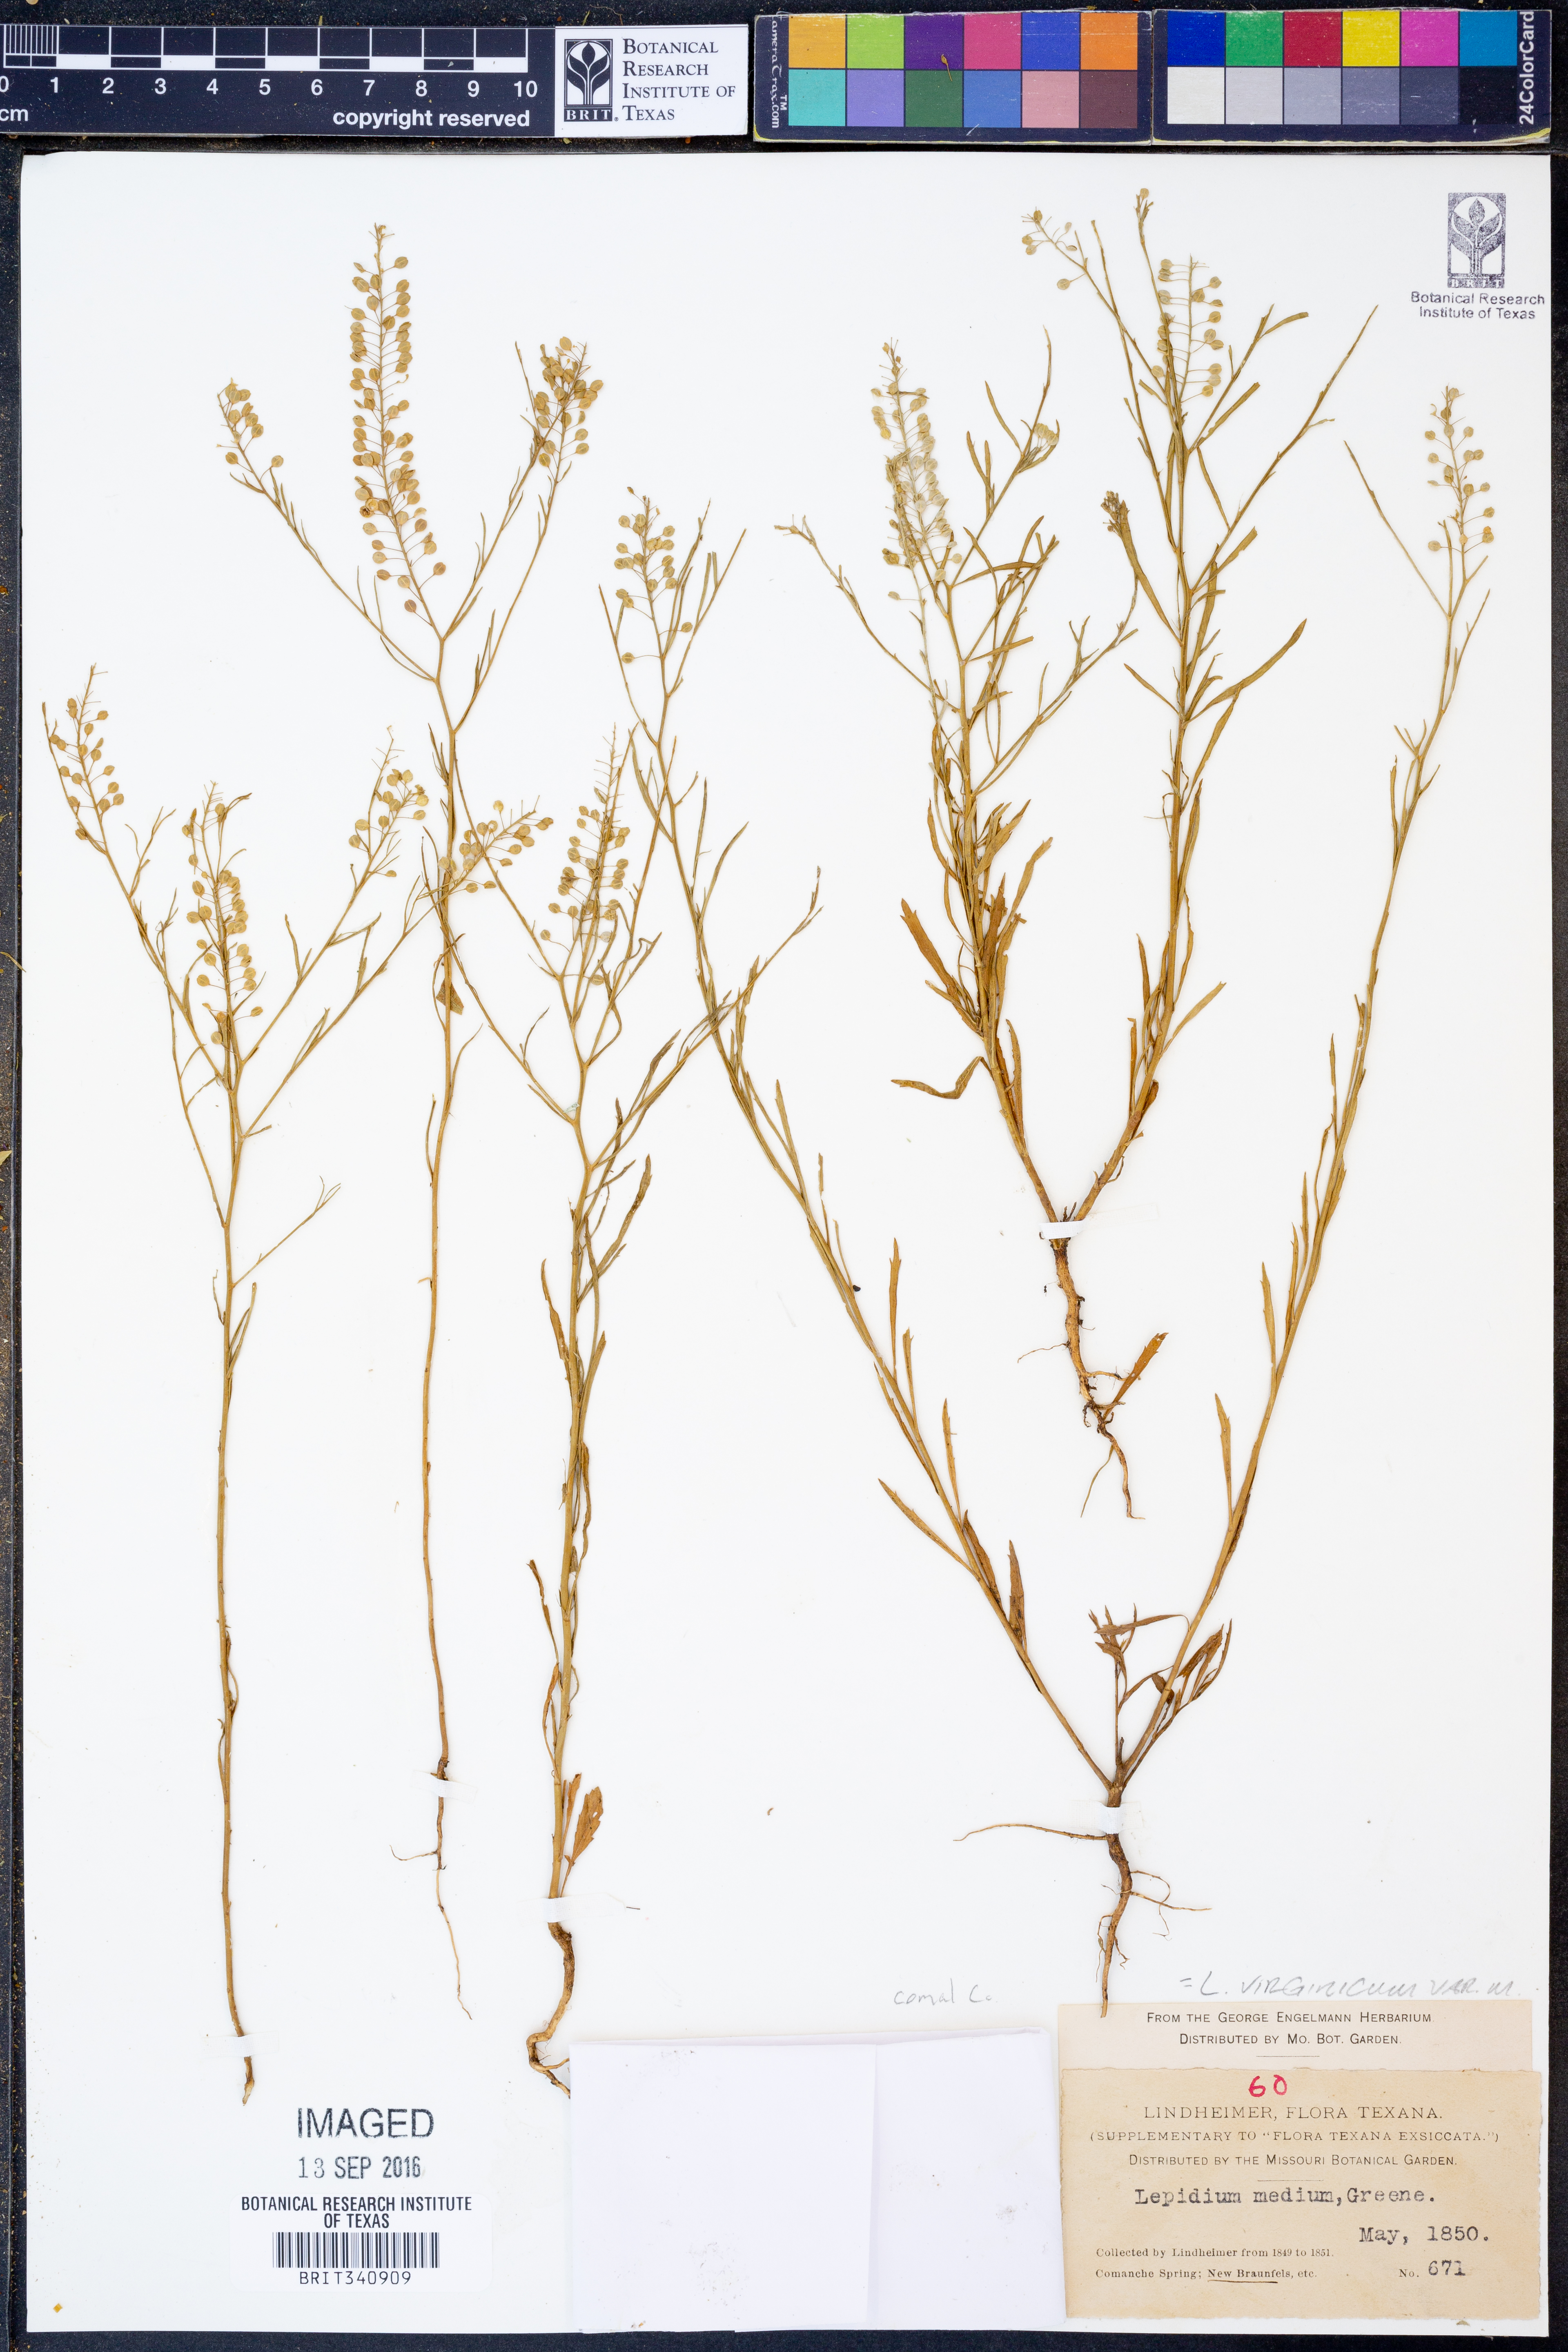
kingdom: Plantae
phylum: Tracheophyta
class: Magnoliopsida
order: Brassicales
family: Brassicaceae
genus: Lepidium
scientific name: Lepidium virginicum
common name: Least pepperwort
